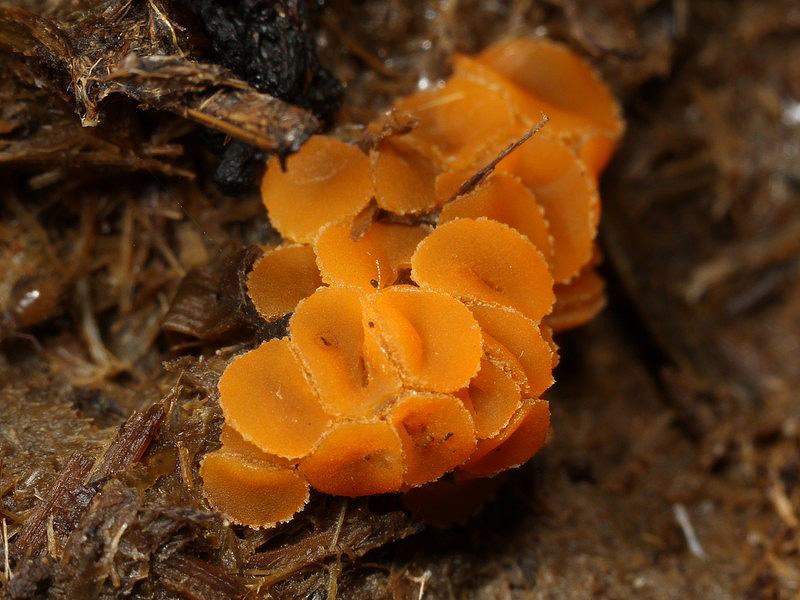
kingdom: Fungi
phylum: Ascomycota
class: Pezizomycetes
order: Pezizales
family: Pyronemataceae
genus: Cheilymenia
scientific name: Cheilymenia granulata
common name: møgbæger
